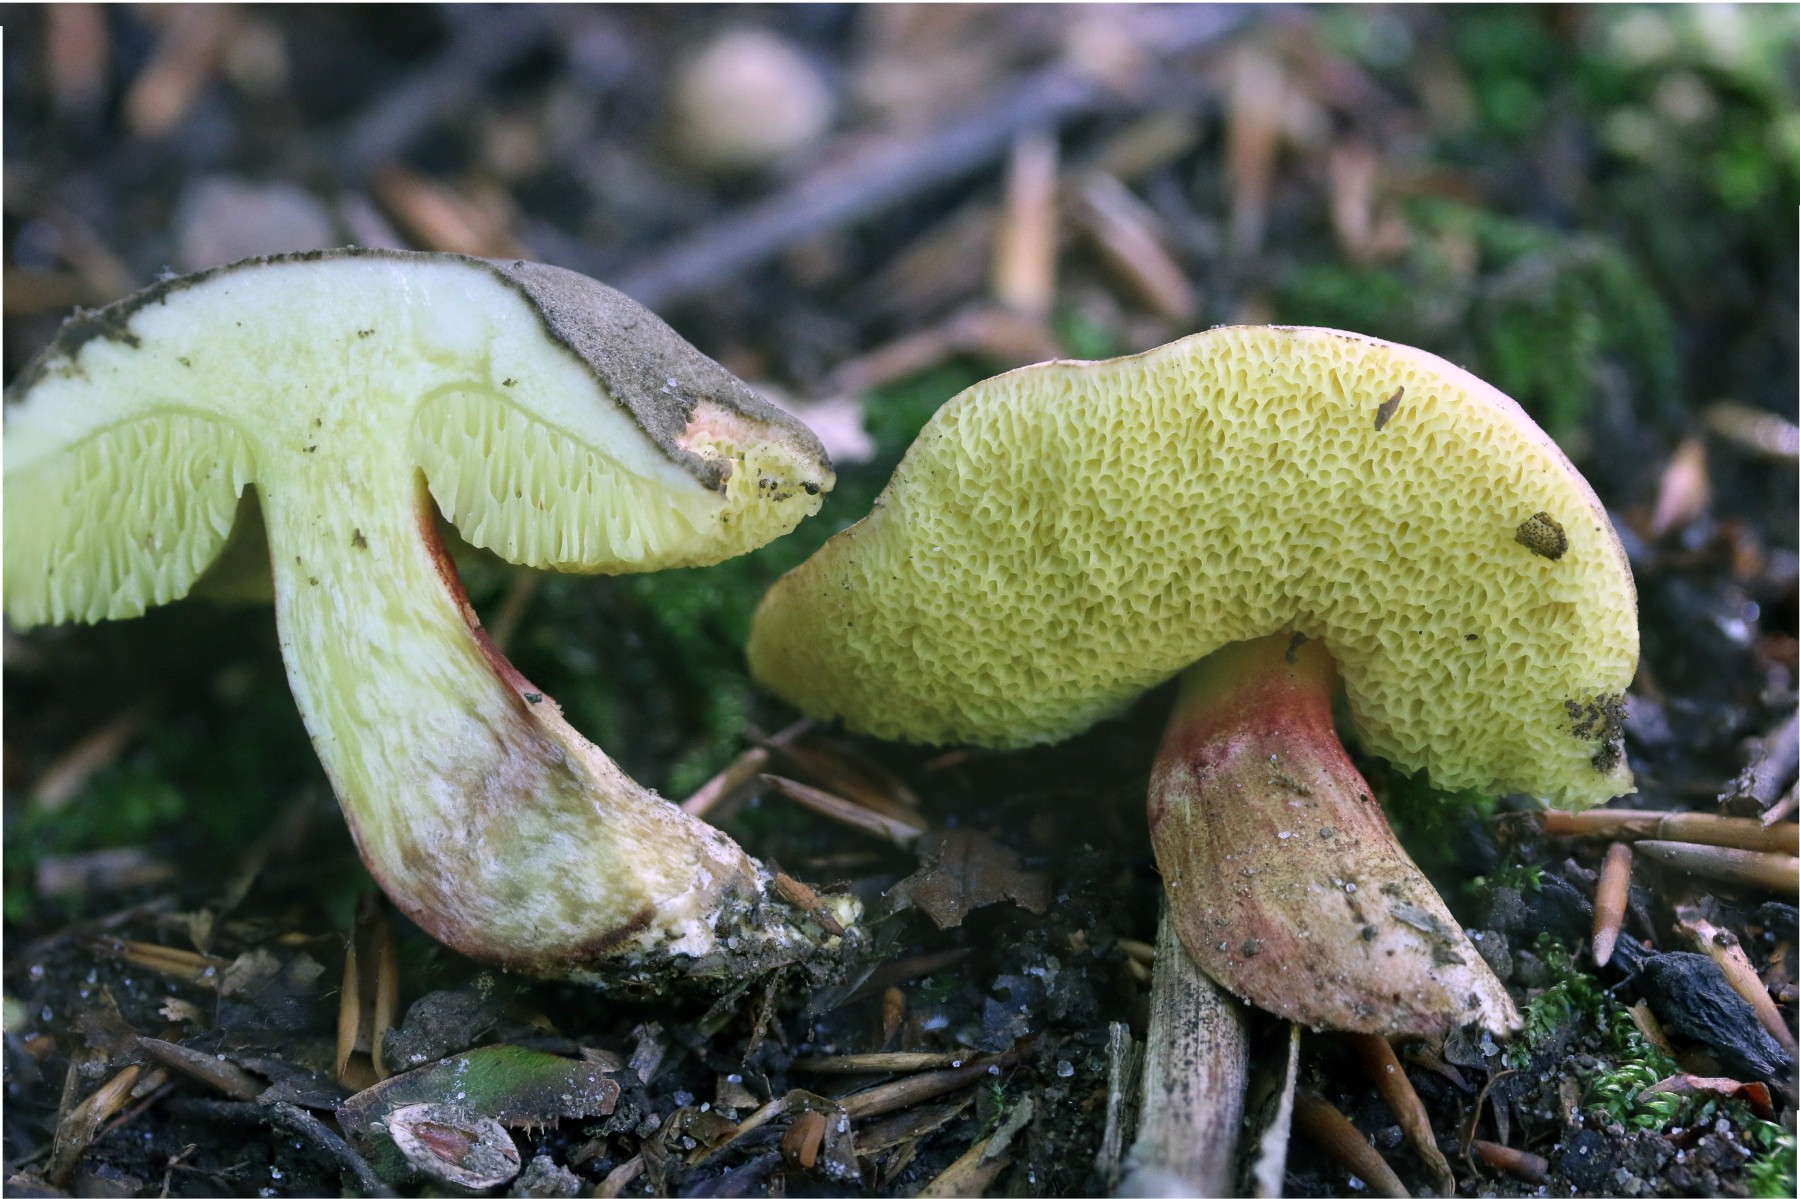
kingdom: Fungi
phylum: Basidiomycota
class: Agaricomycetes
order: Boletales
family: Boletaceae
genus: Xerocomellus
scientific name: Xerocomellus chrysenteron
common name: rødsprukken rørhat
